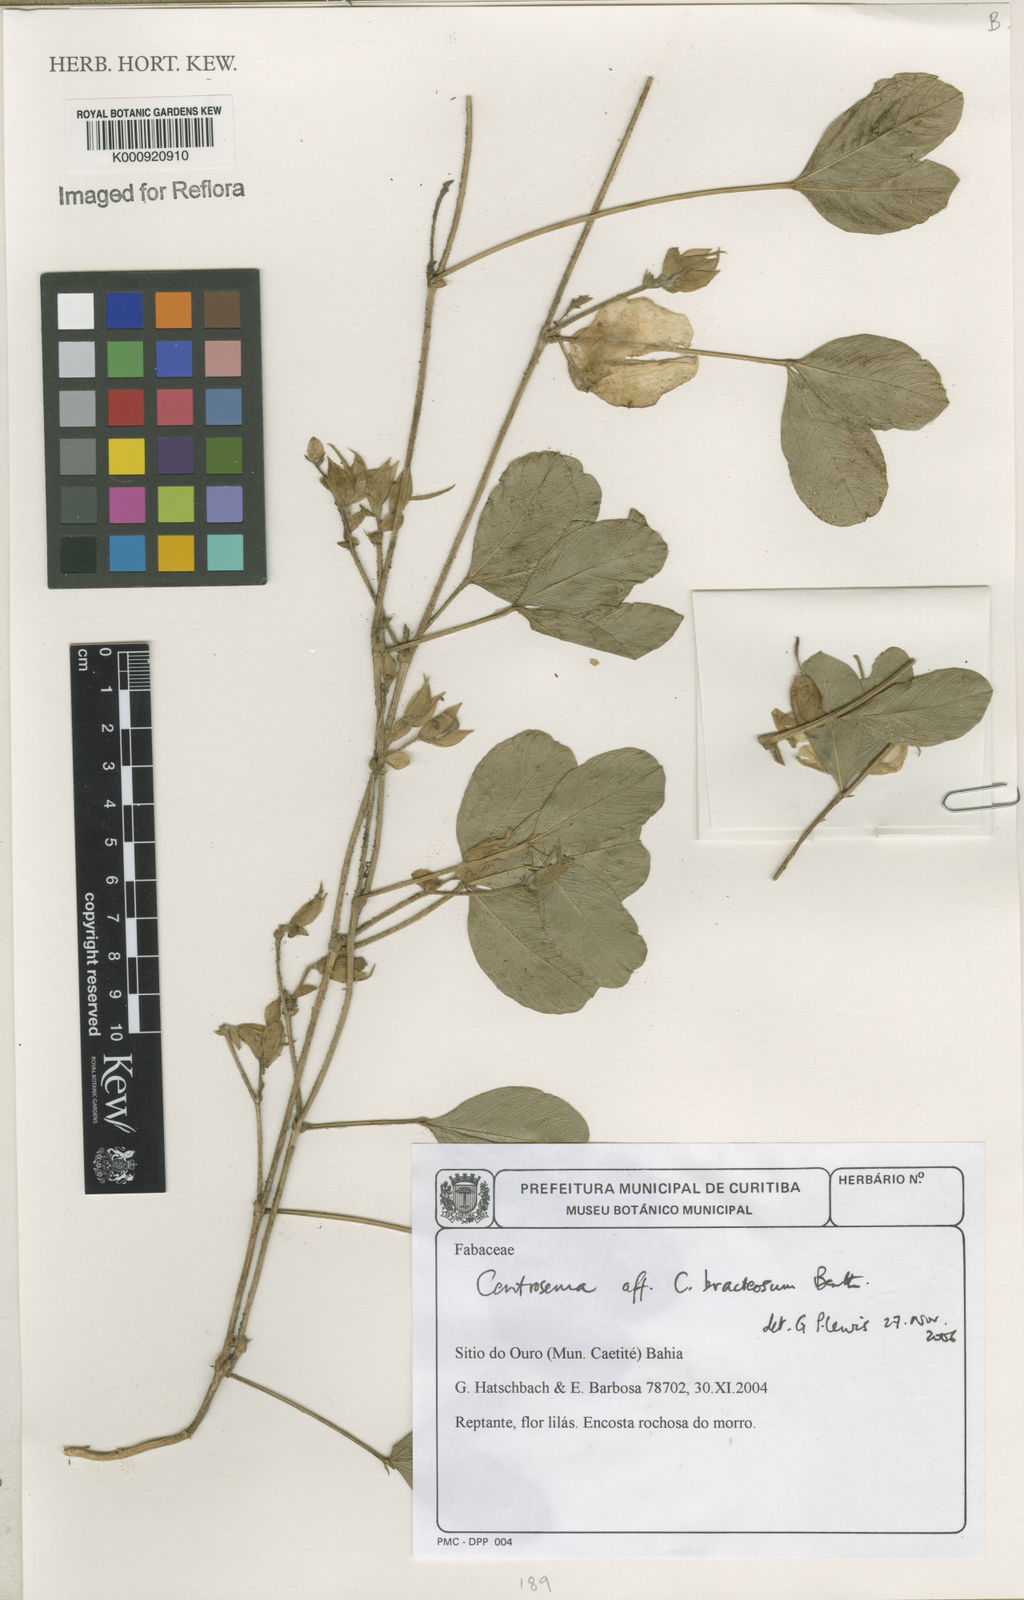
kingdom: Plantae
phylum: Tracheophyta
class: Magnoliopsida
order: Fabales
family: Fabaceae
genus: Centrosema
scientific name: Centrosema bracteosum
